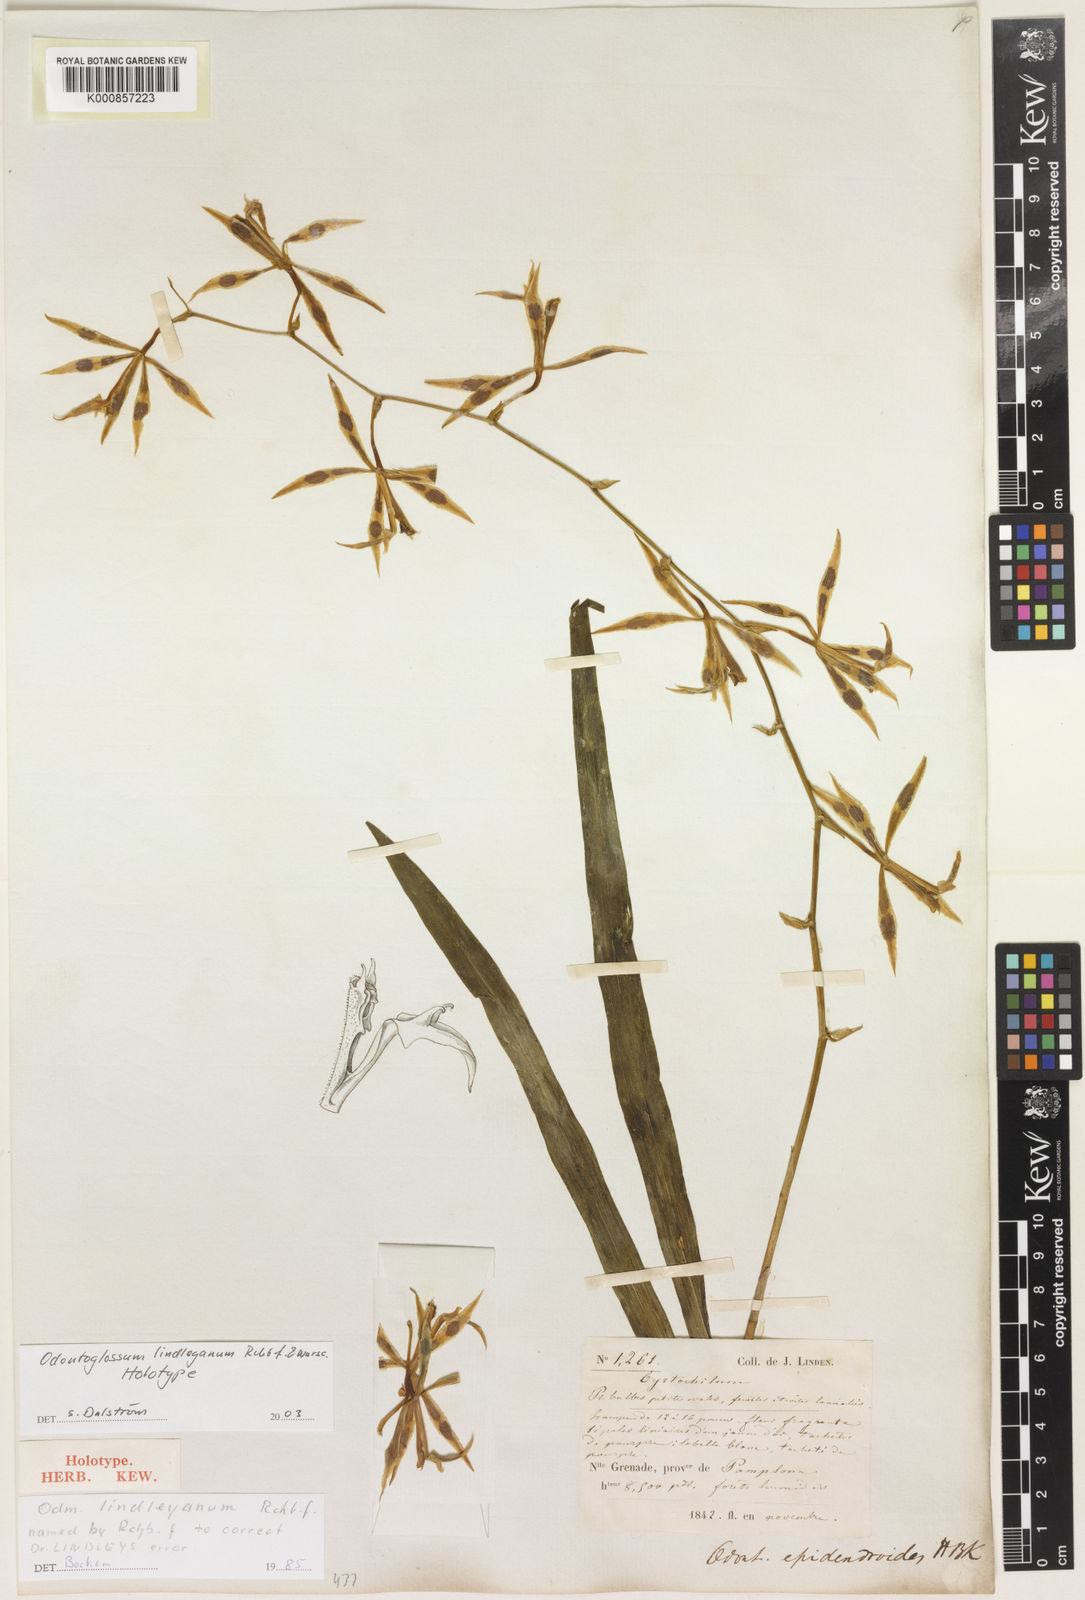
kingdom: Plantae
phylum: Tracheophyta
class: Liliopsida
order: Asparagales
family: Orchidaceae
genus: Oncidium
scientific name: Oncidium lindleyoides
